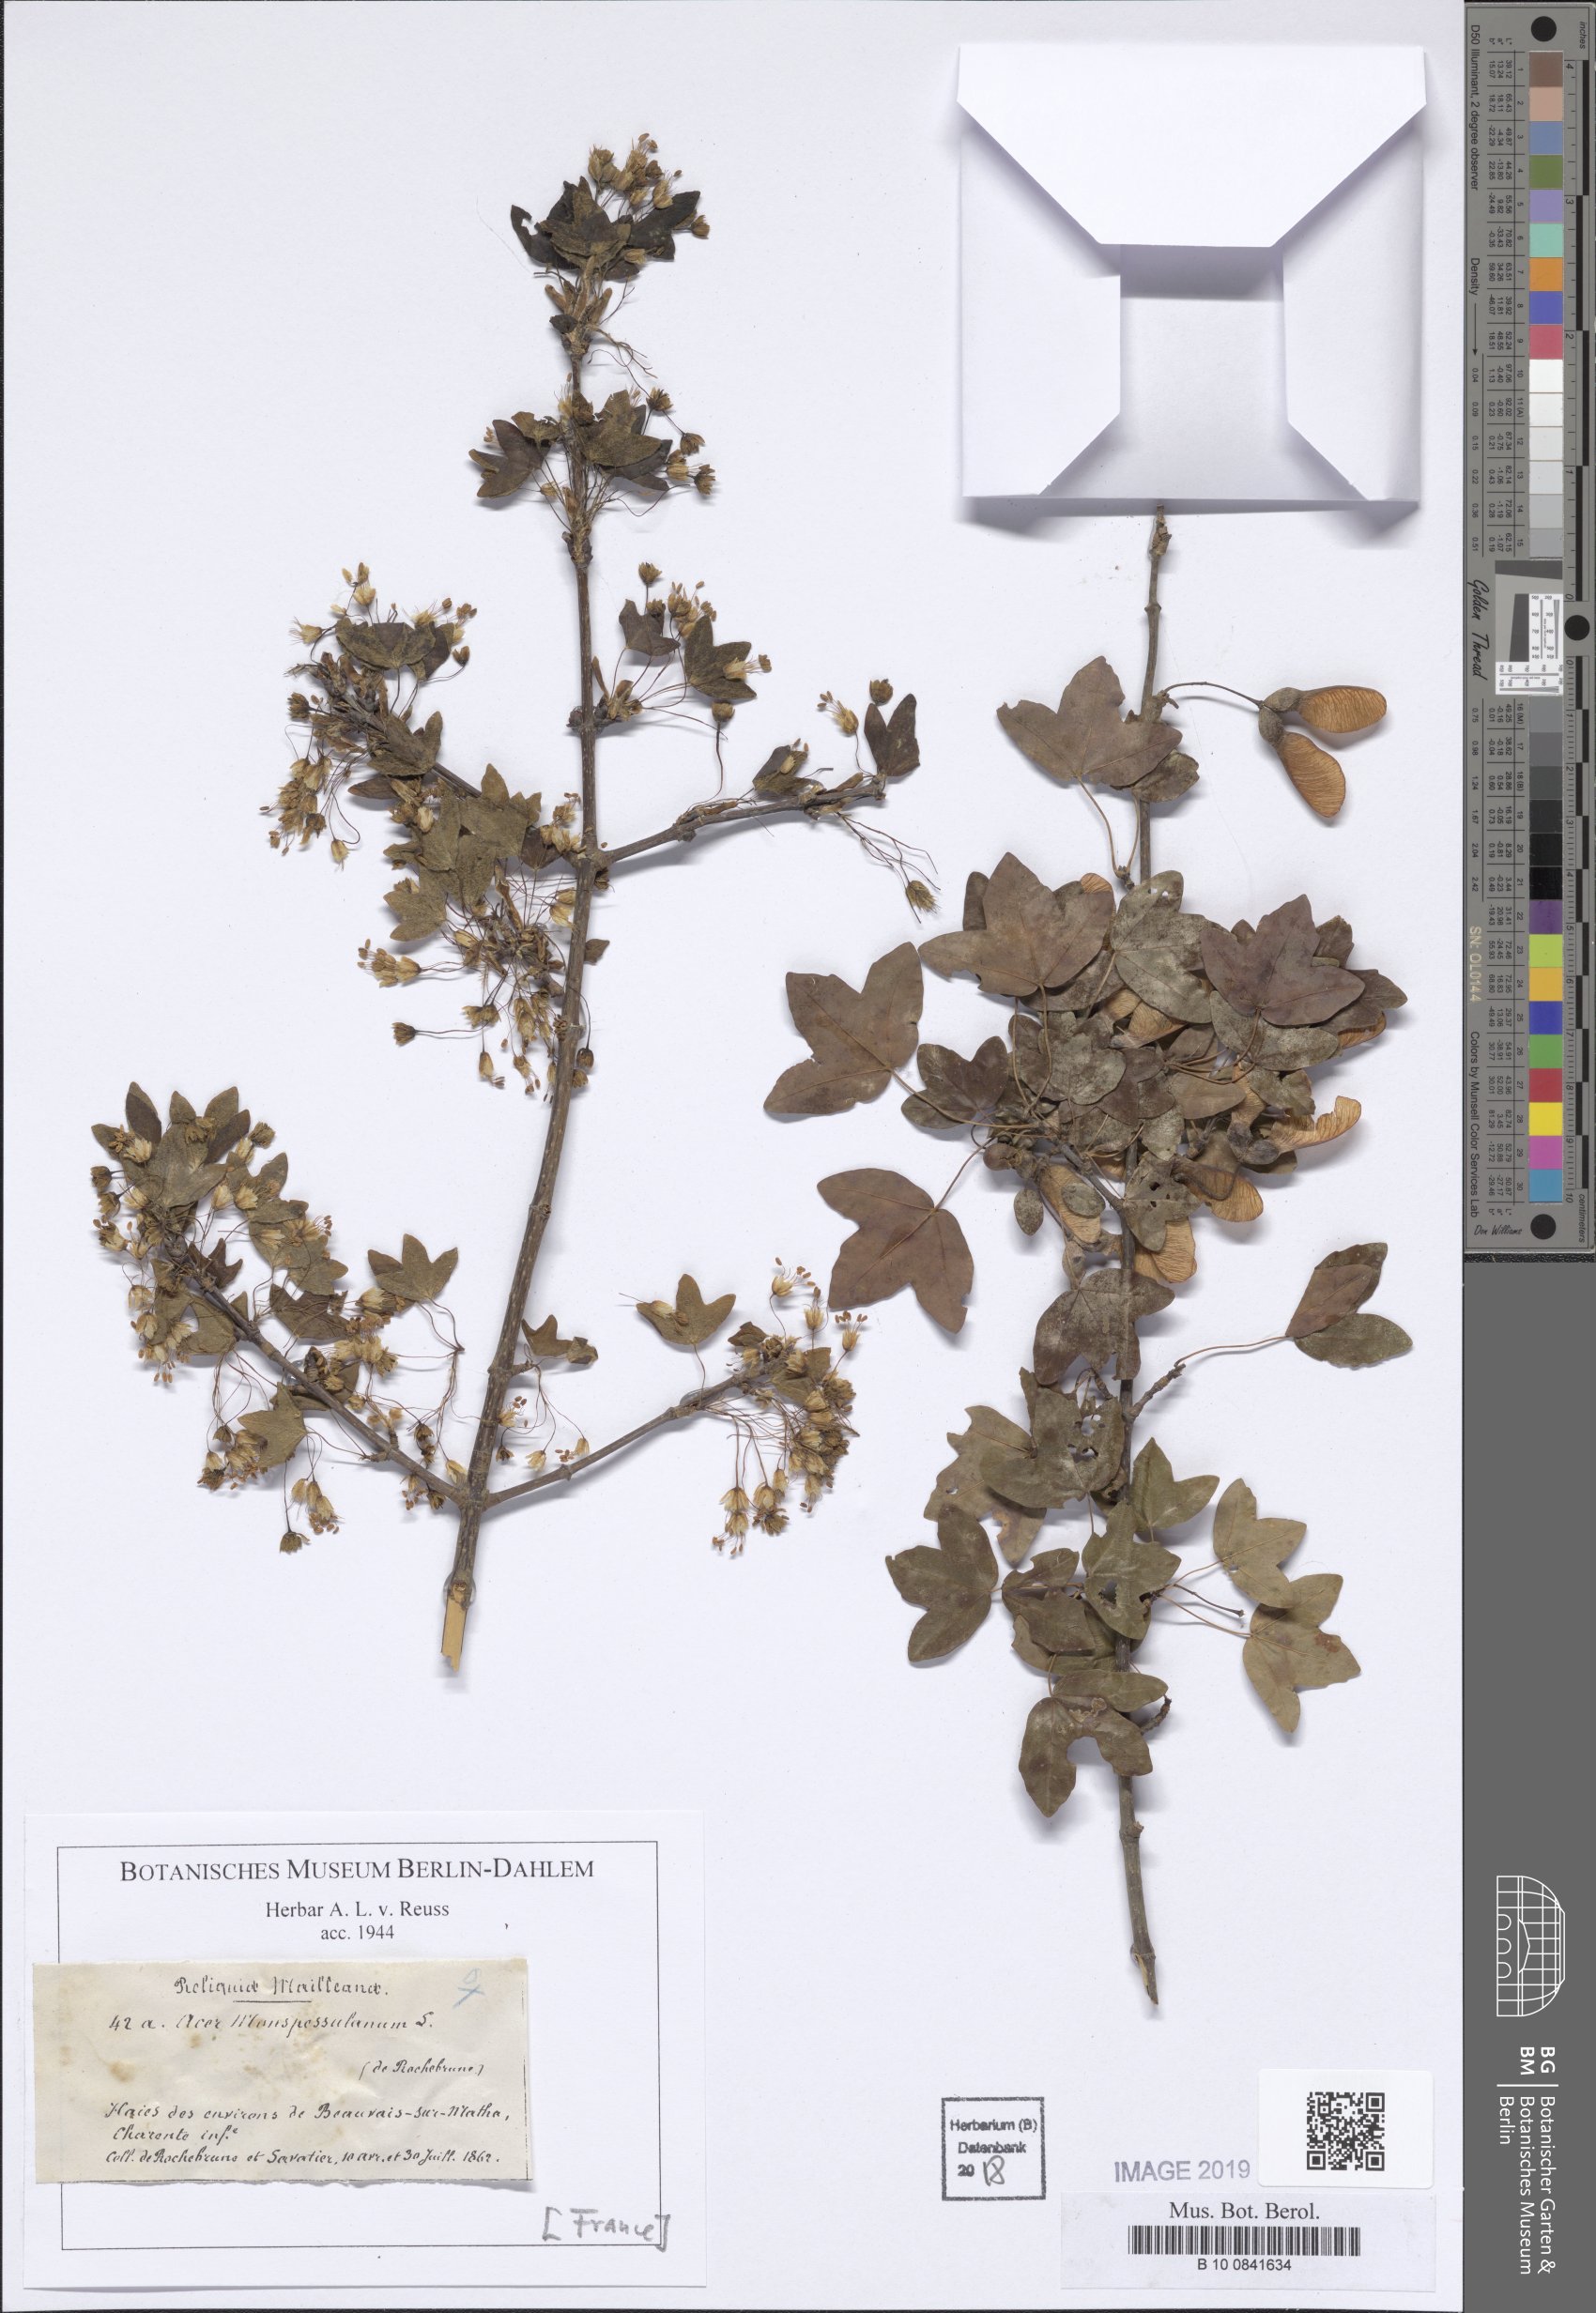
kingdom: Plantae
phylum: Tracheophyta
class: Magnoliopsida
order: Sapindales
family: Sapindaceae
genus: Acer
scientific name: Acer monspessulanum
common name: Montpellier maple
